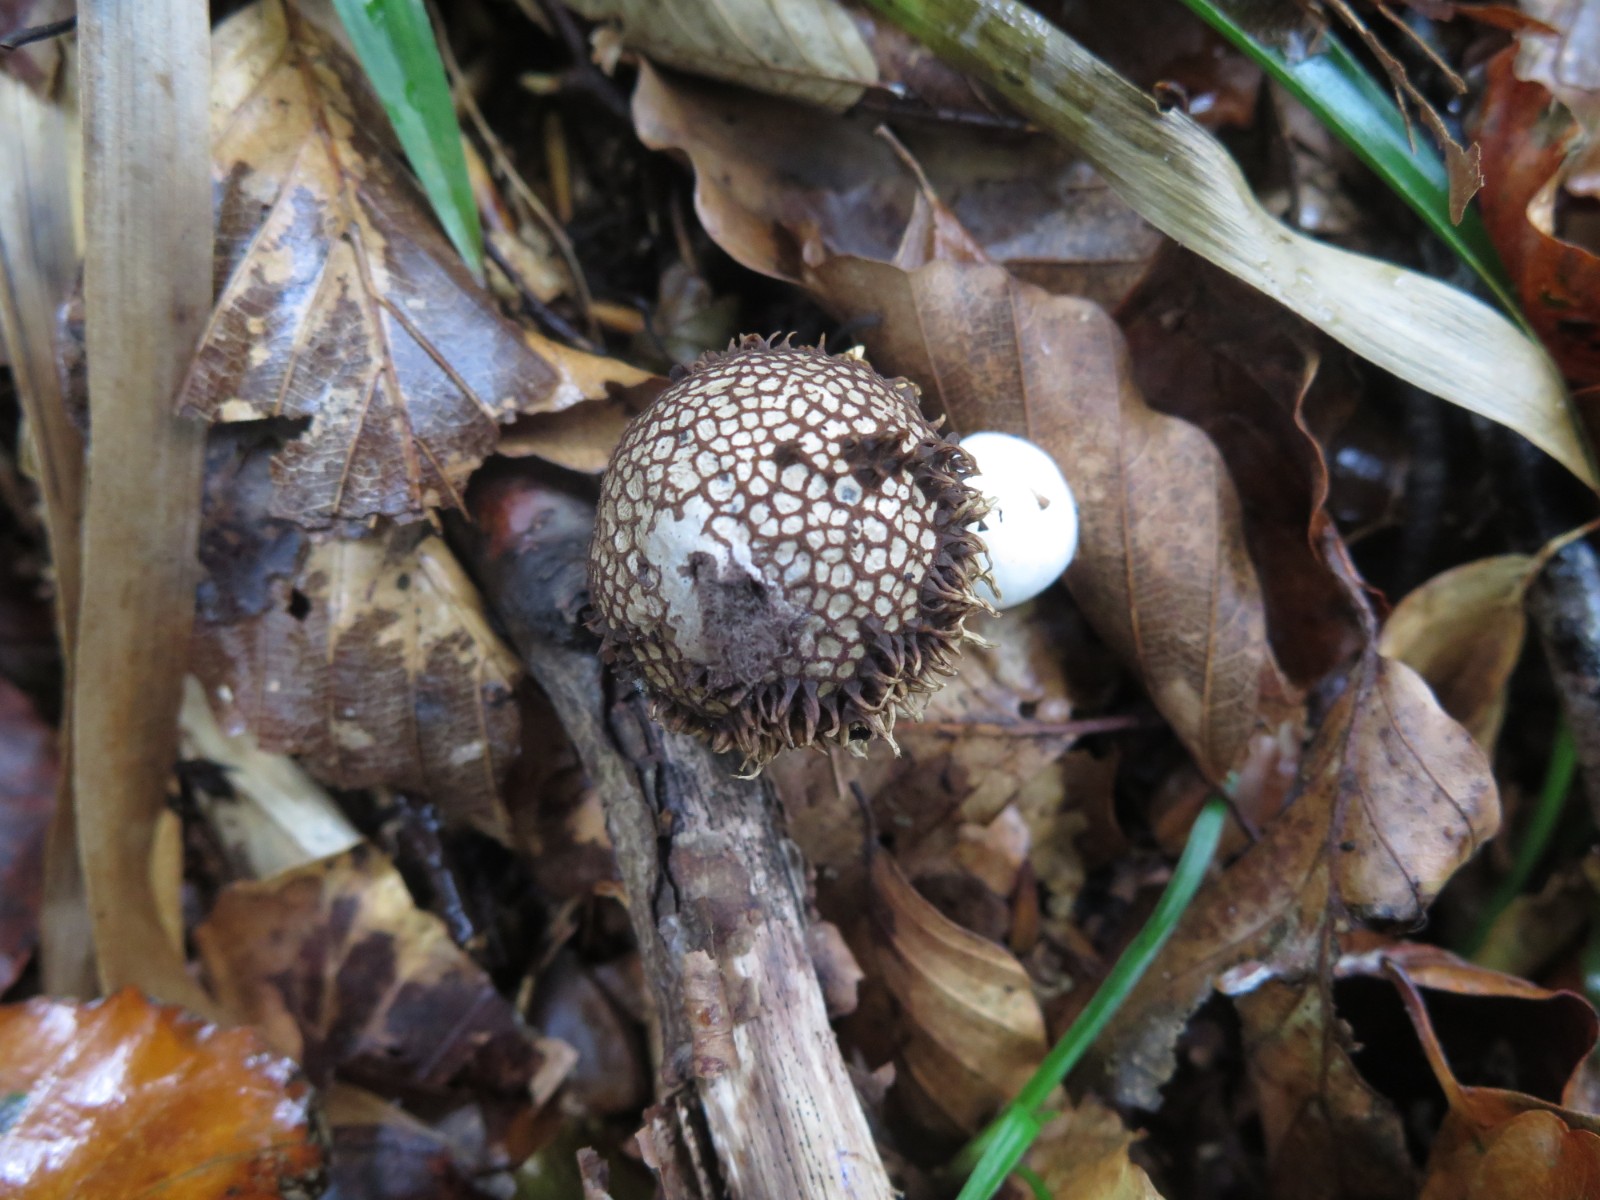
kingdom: Fungi
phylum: Basidiomycota
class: Agaricomycetes
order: Agaricales
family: Lycoperdaceae
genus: Lycoperdon
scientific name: Lycoperdon echinatum
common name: pindsvine-støvbold
